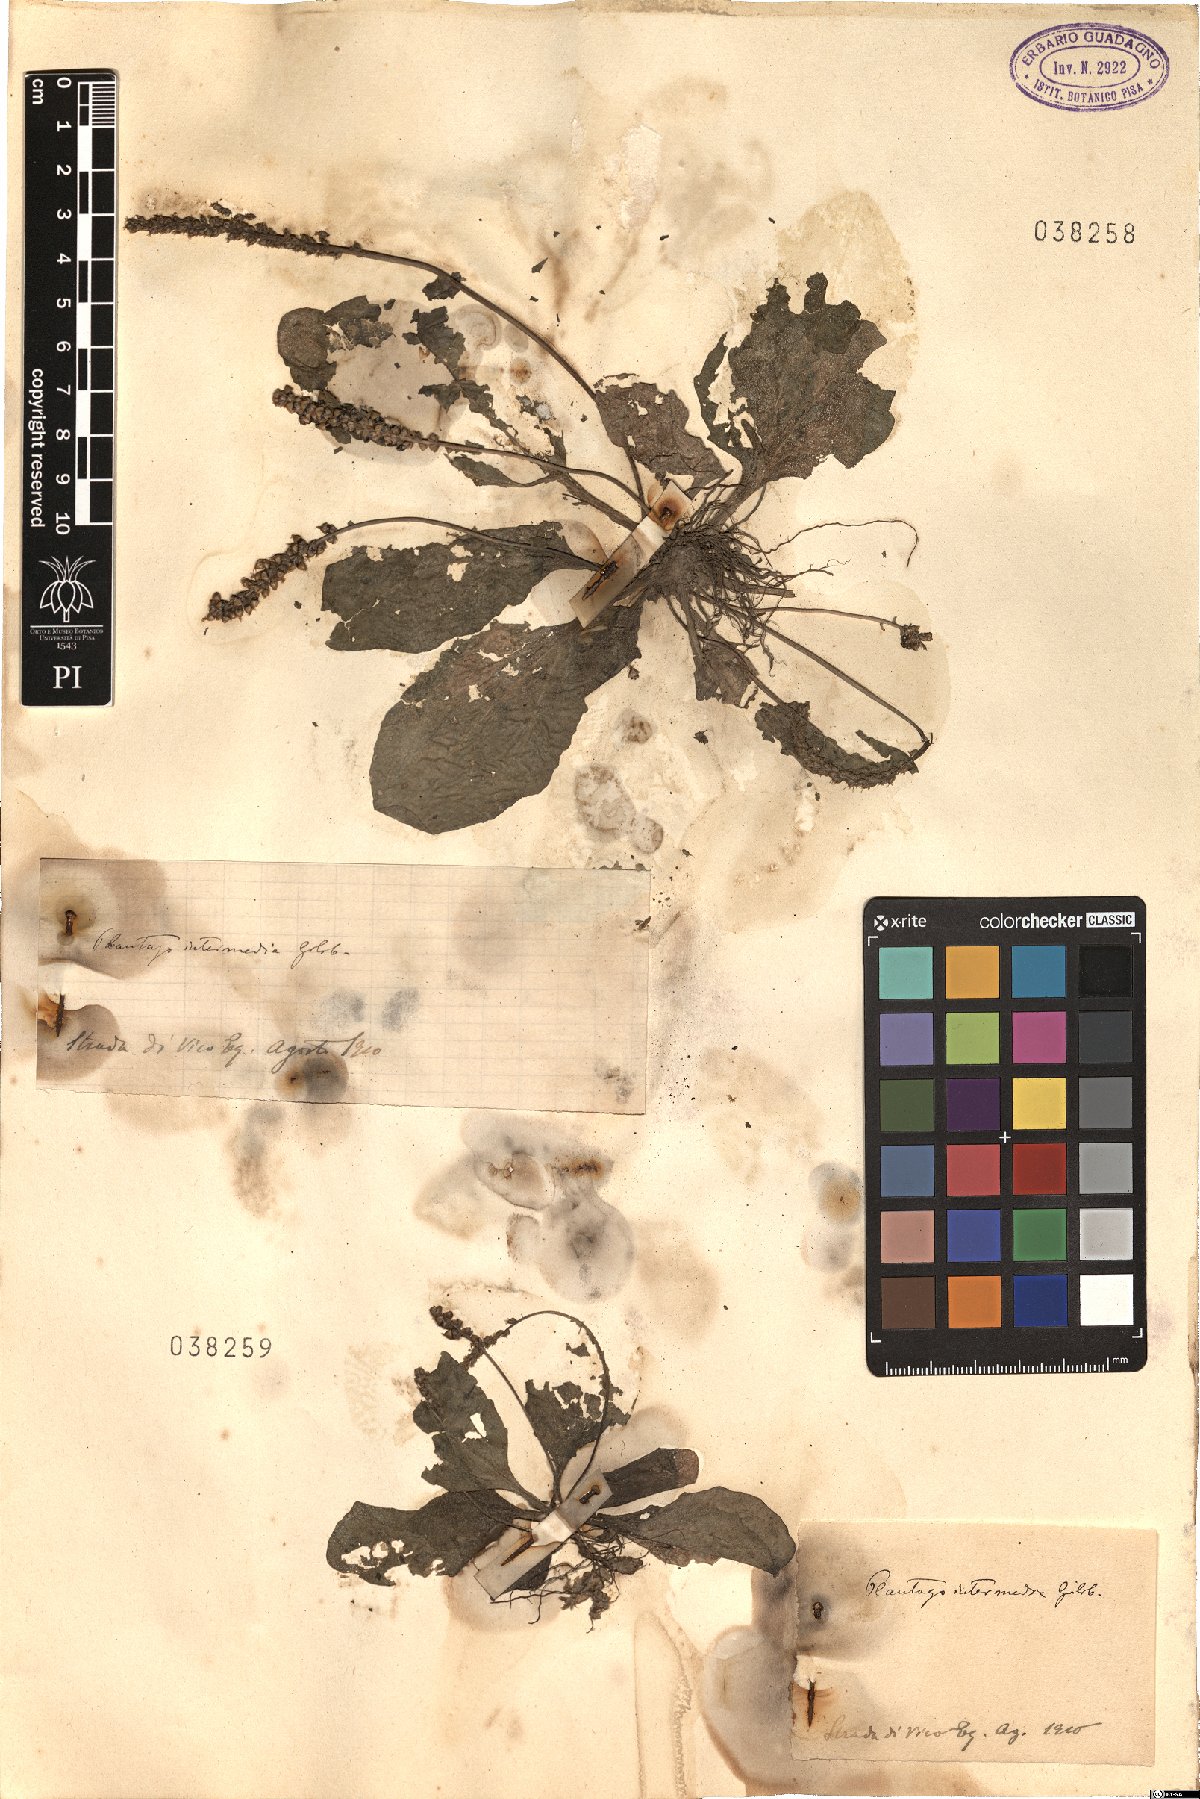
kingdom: Plantae
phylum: Tracheophyta
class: Magnoliopsida
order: Lamiales
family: Plantaginaceae
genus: Plantago
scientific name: Plantago uliginosa
